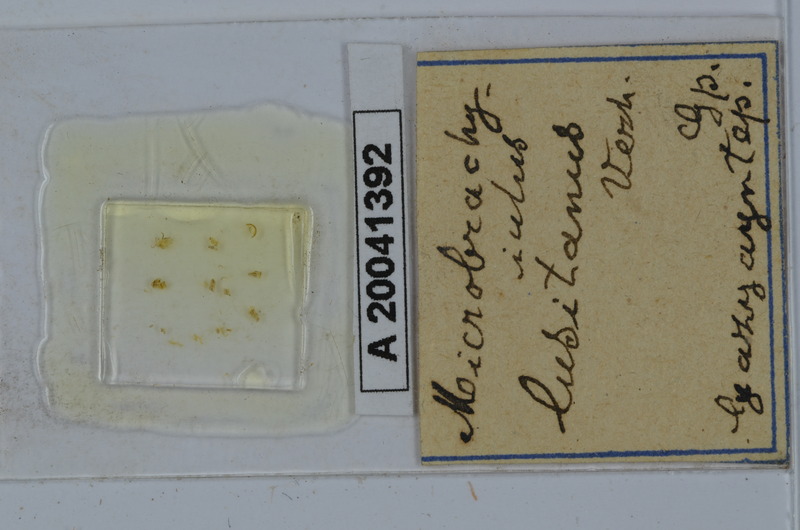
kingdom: Animalia
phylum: Arthropoda
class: Diplopoda
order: Julida
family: Julidae
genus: Brachyiulus
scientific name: Brachyiulus lusitanus
